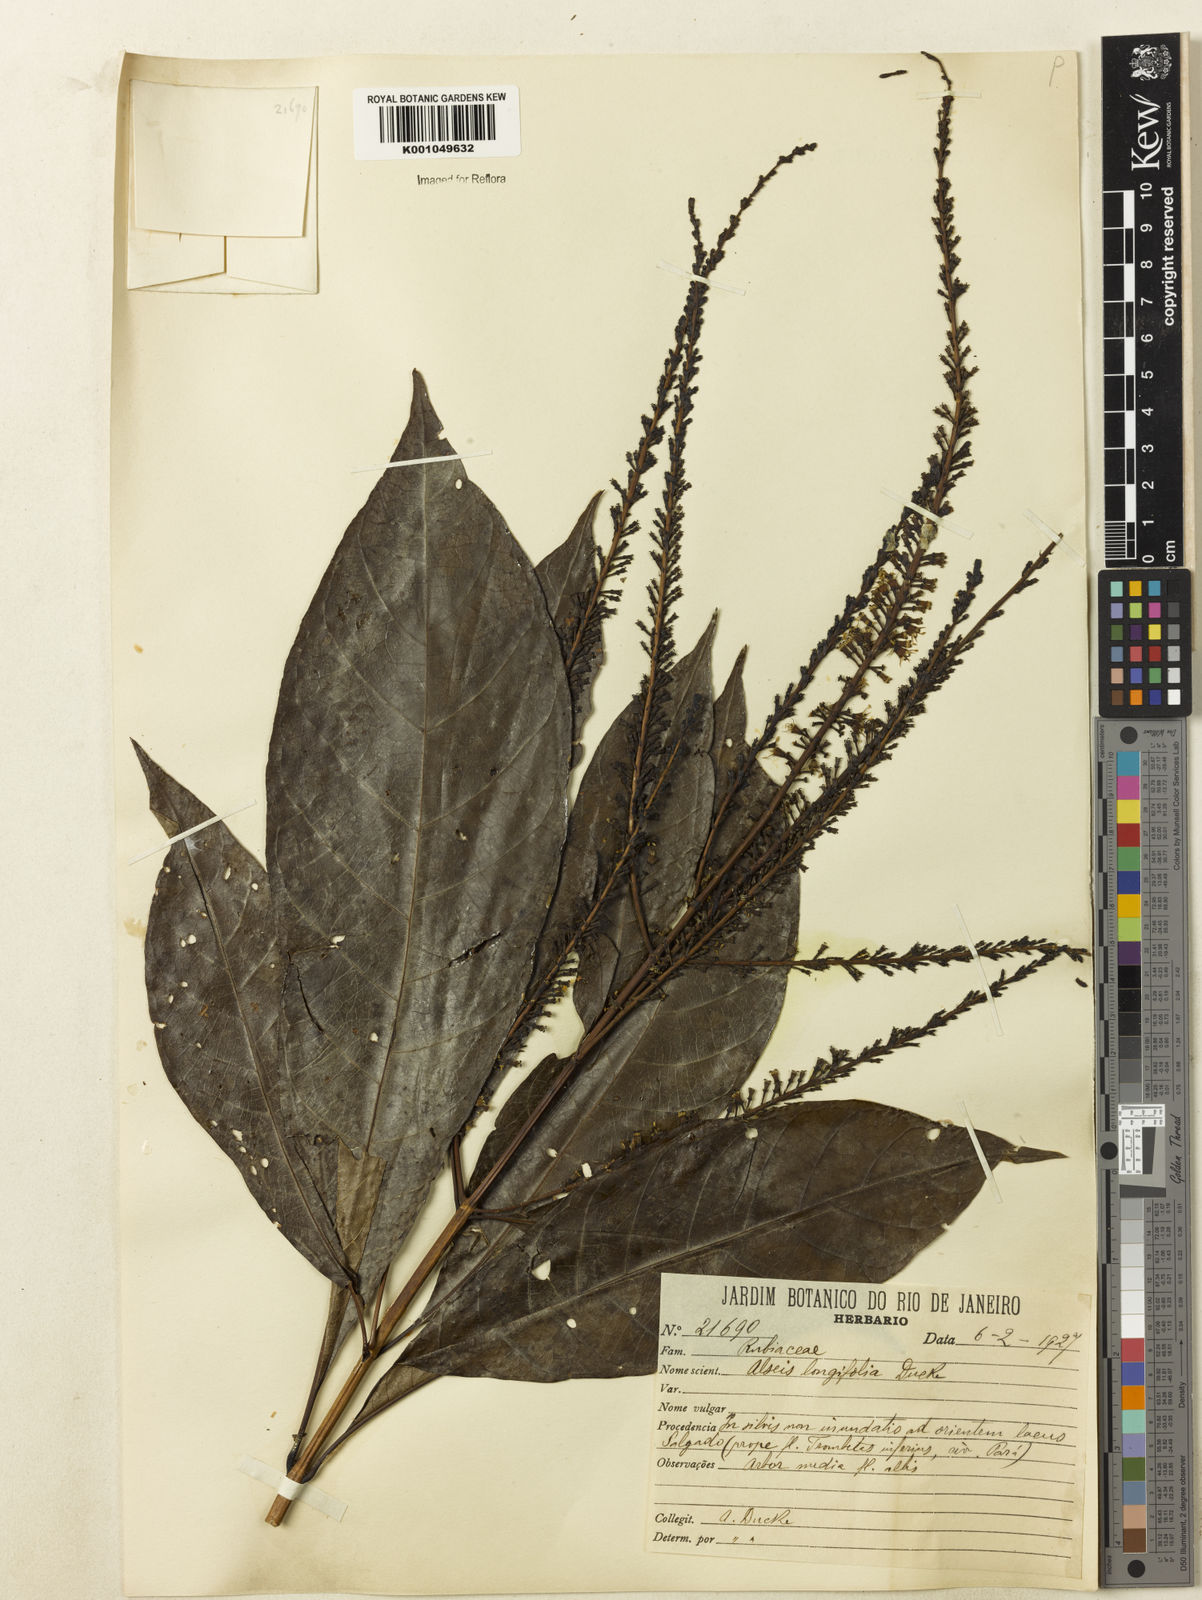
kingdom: Plantae
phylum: Tracheophyta
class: Magnoliopsida
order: Gentianales
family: Rubiaceae
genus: Alseis
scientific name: Alseis longifolia
